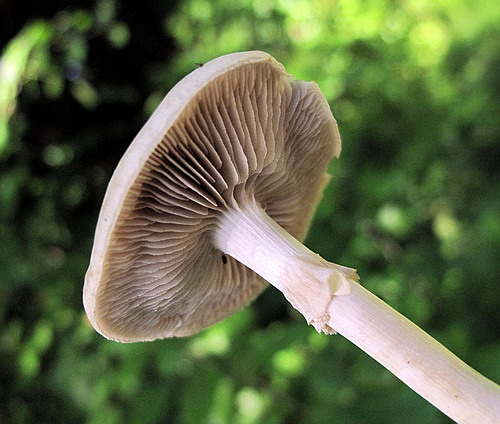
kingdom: Fungi
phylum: Basidiomycota
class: Agaricomycetes
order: Agaricales
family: Strophariaceae
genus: Agrocybe
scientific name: Agrocybe praecox
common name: tidlig agerhat
